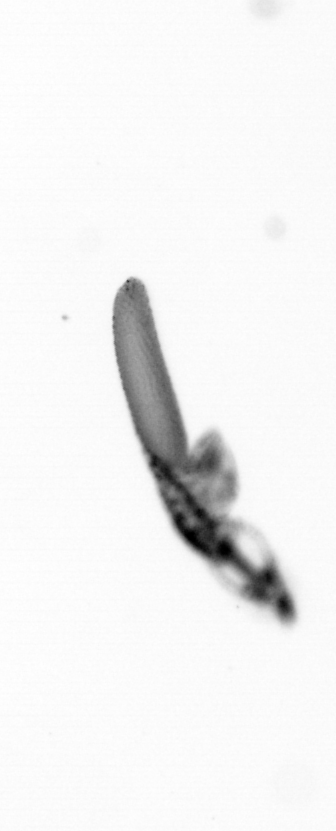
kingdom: Animalia
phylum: Arthropoda
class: Copepoda
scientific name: Copepoda
